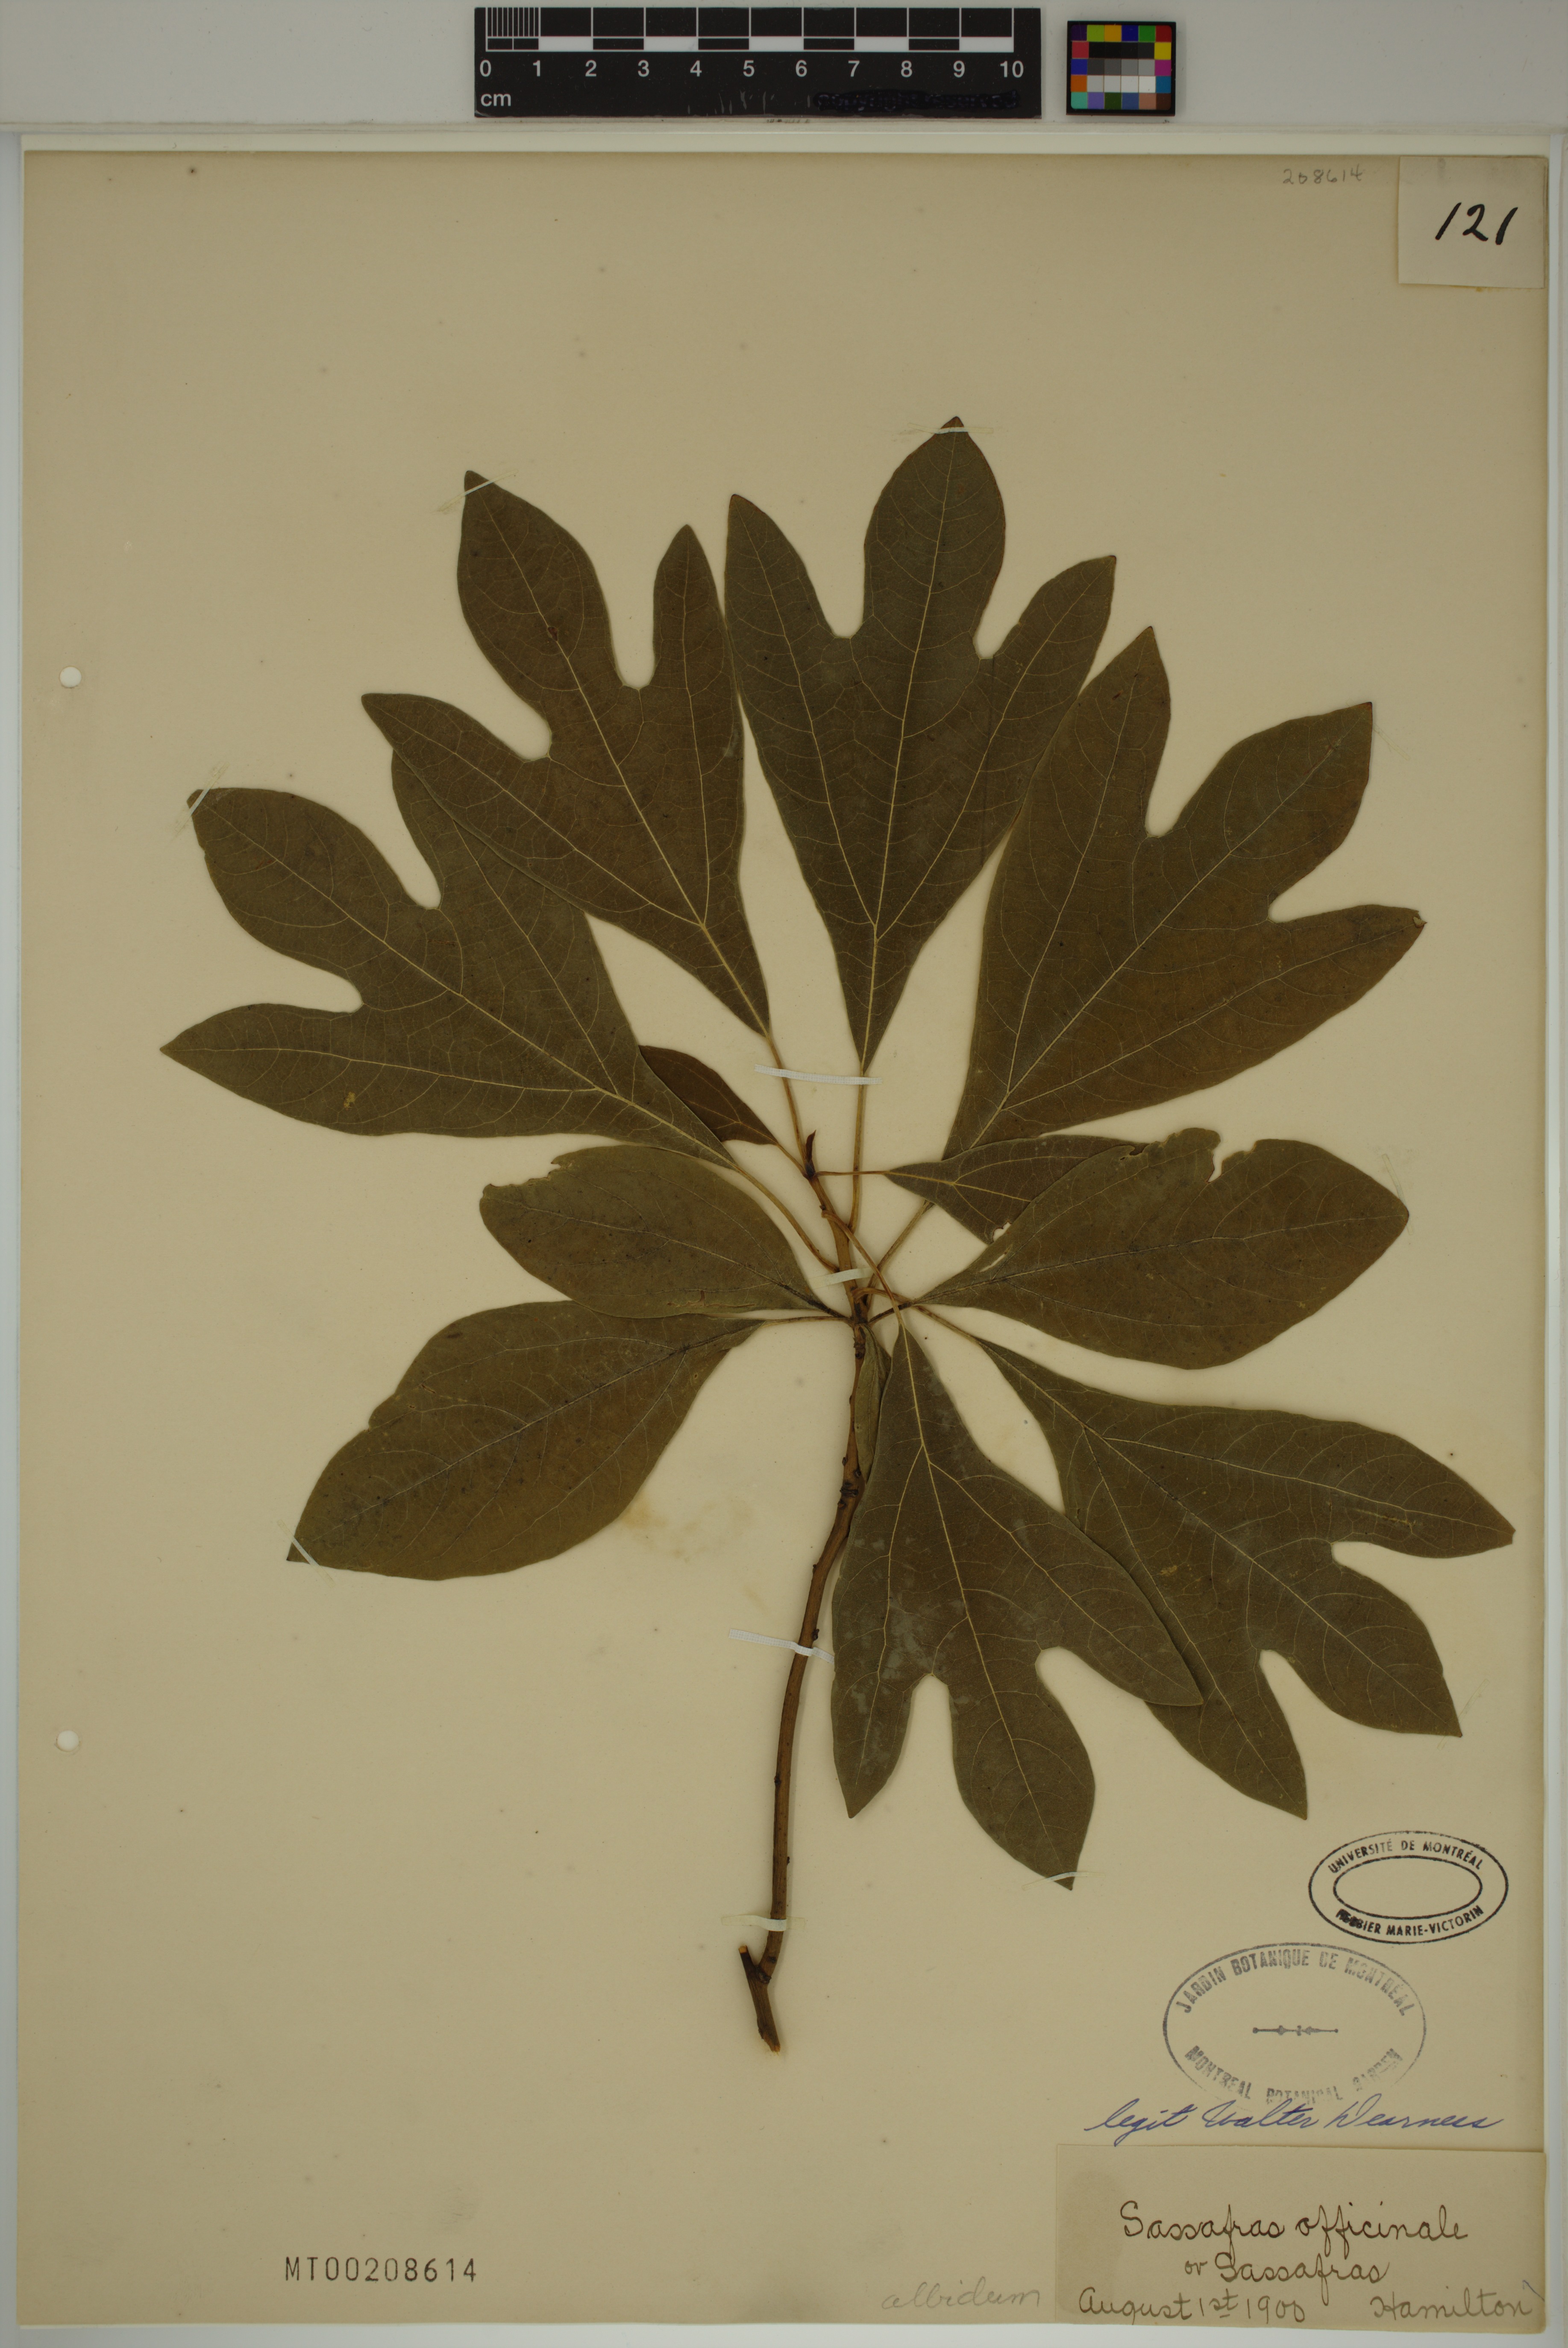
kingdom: Plantae
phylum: Tracheophyta
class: Magnoliopsida
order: Laurales
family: Lauraceae
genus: Sassafras
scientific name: Sassafras albidum
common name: Sassafras
